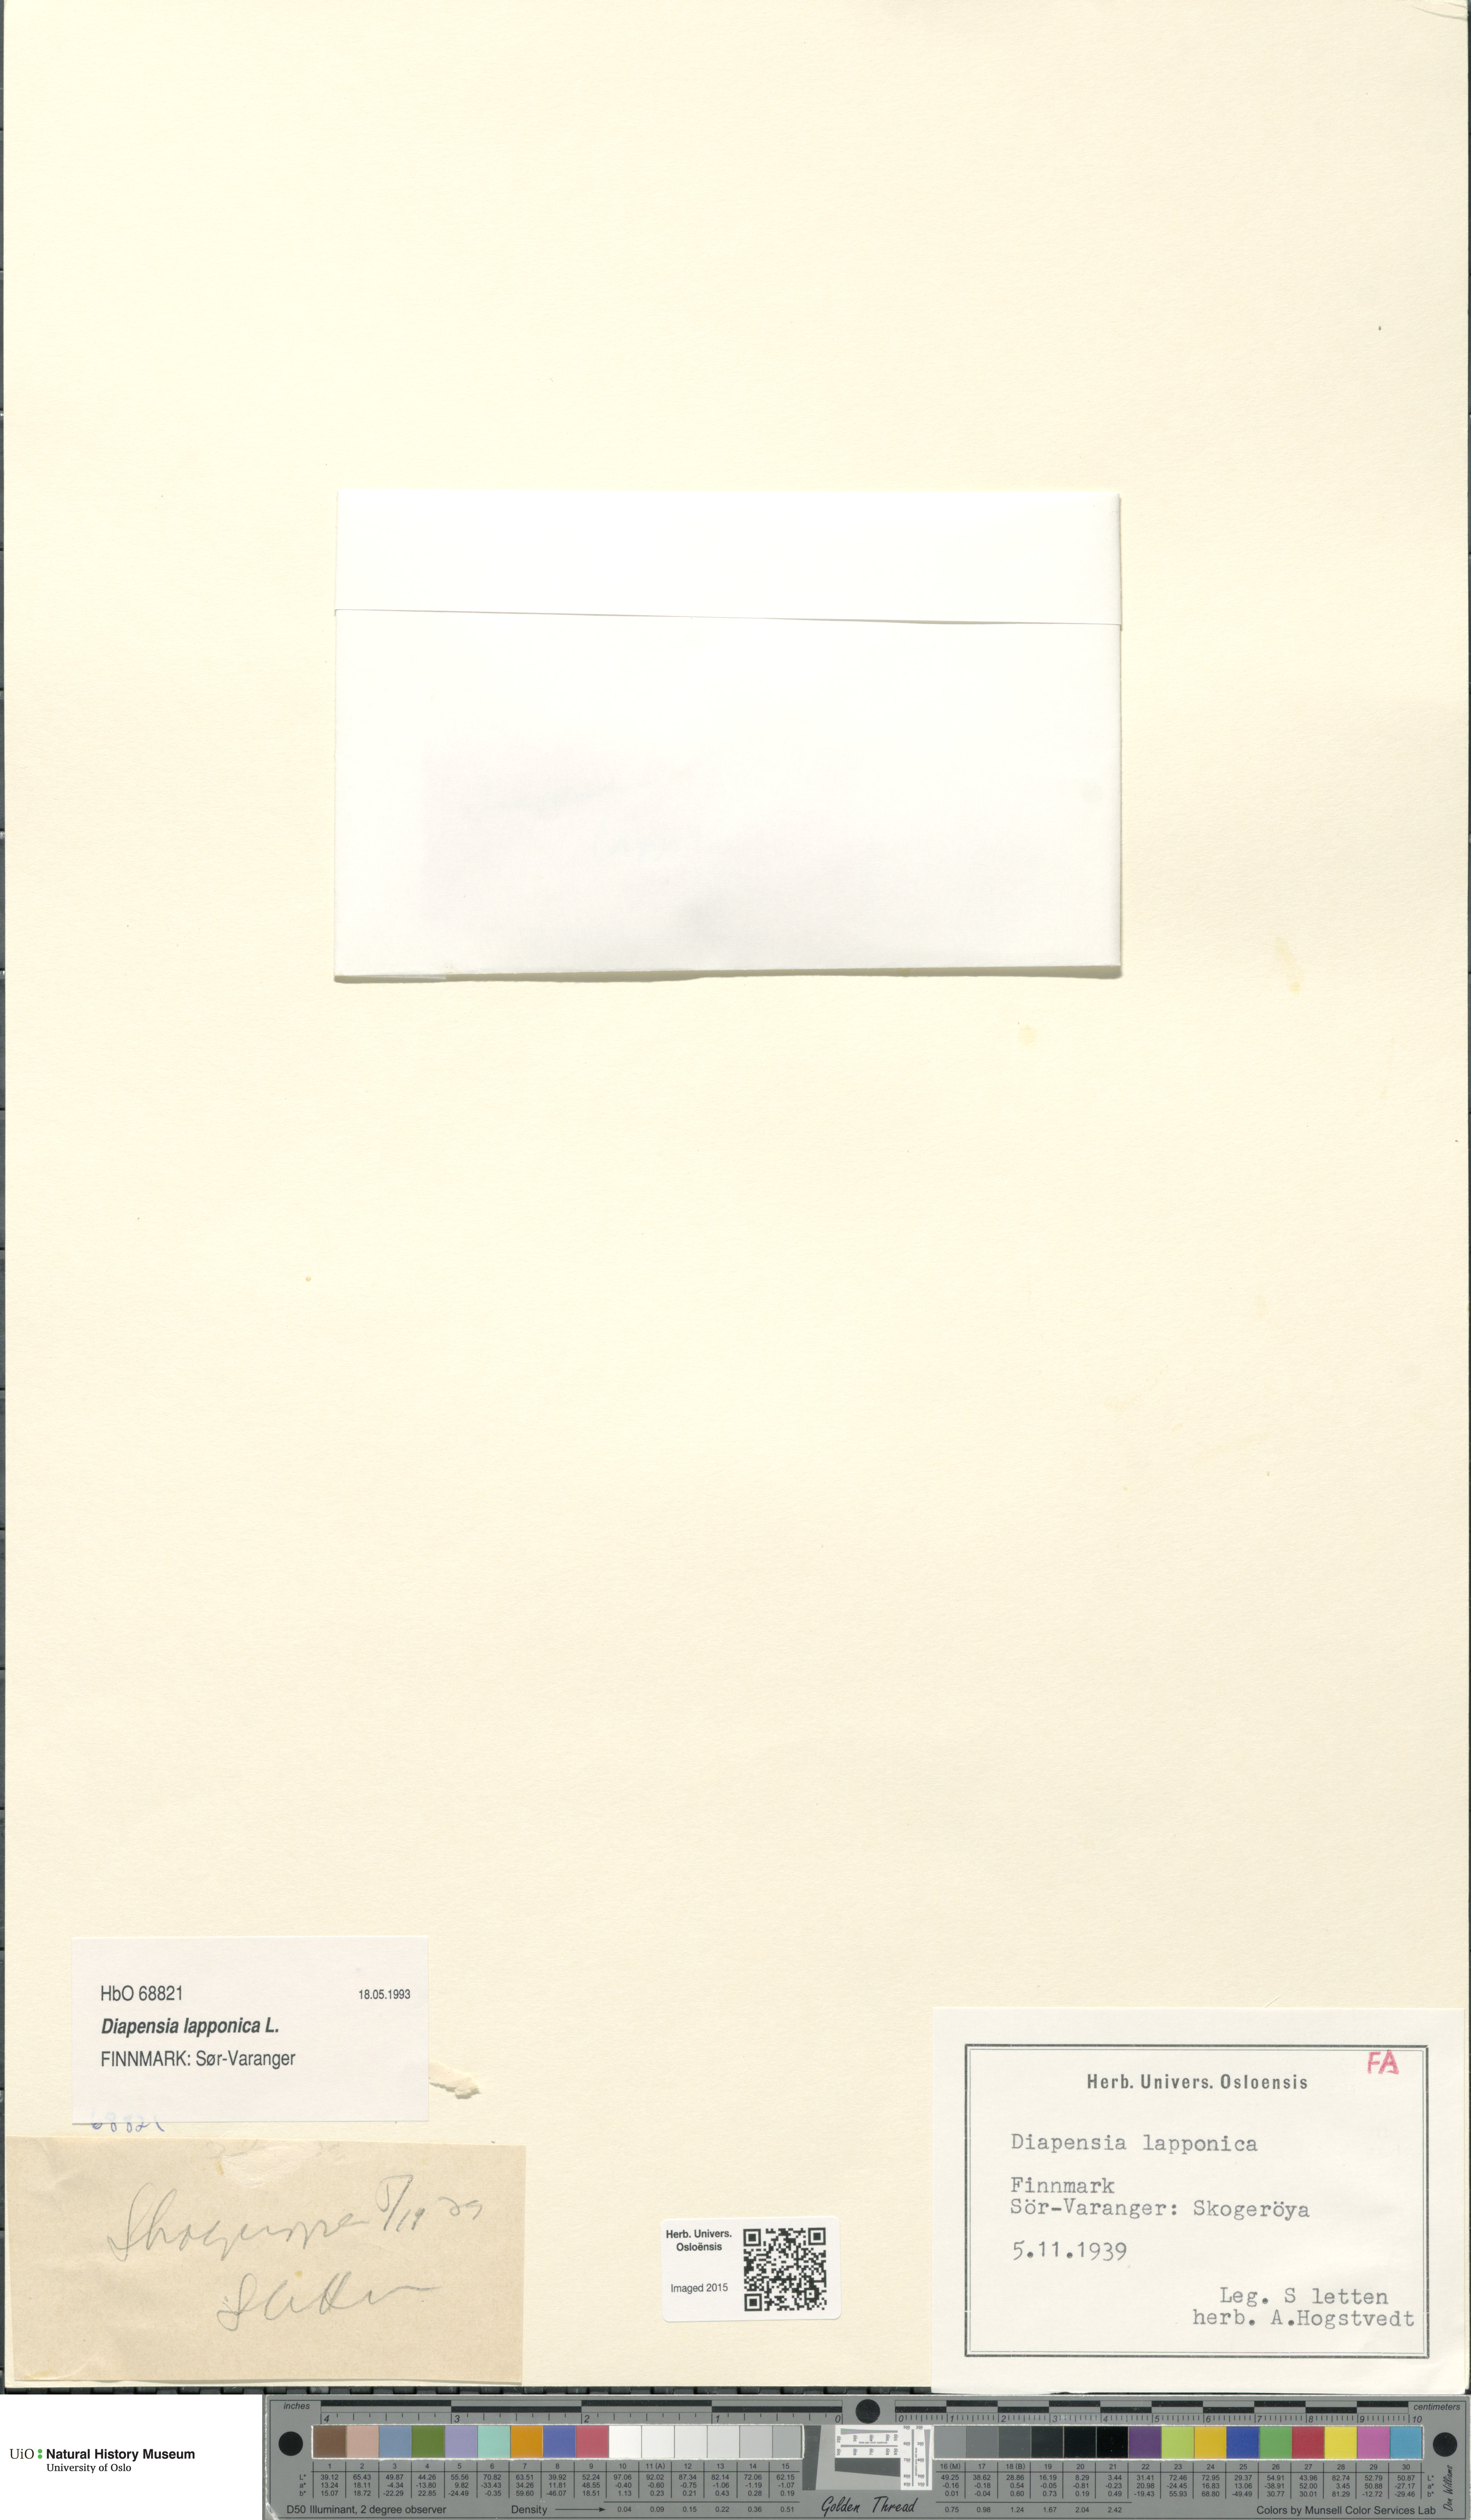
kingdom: Plantae
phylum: Tracheophyta
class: Magnoliopsida
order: Ericales
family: Diapensiaceae
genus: Diapensia
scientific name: Diapensia lapponica
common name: Diapensia
